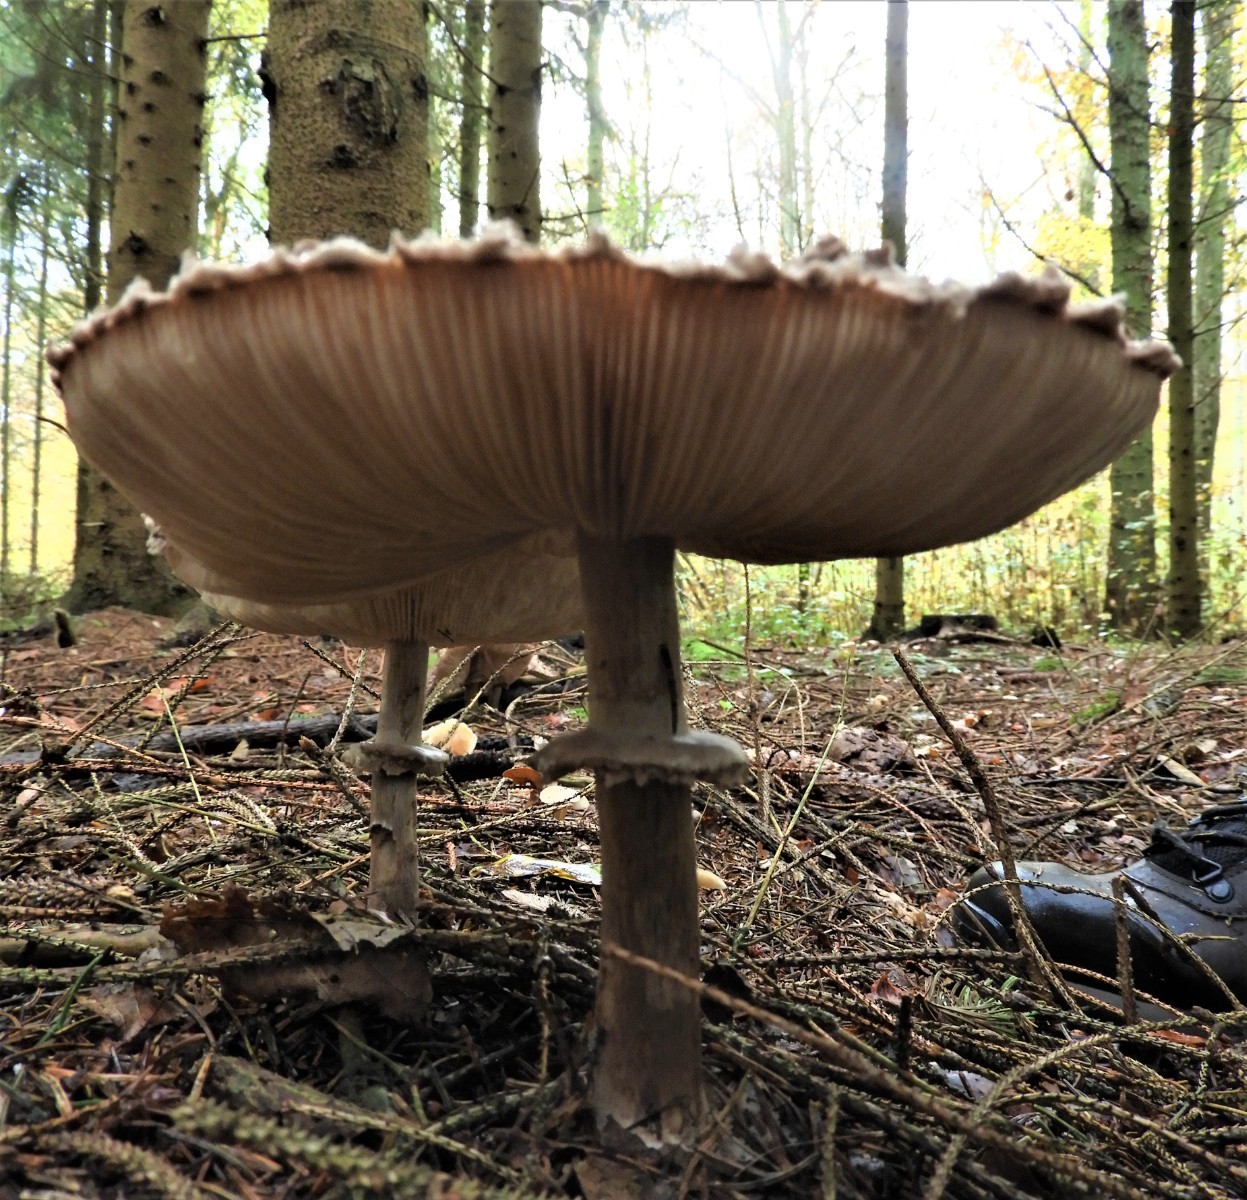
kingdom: Fungi
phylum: Basidiomycota
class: Agaricomycetes
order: Agaricales
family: Agaricaceae
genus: Chlorophyllum
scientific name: Chlorophyllum olivieri
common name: almindelig rabarberhat
